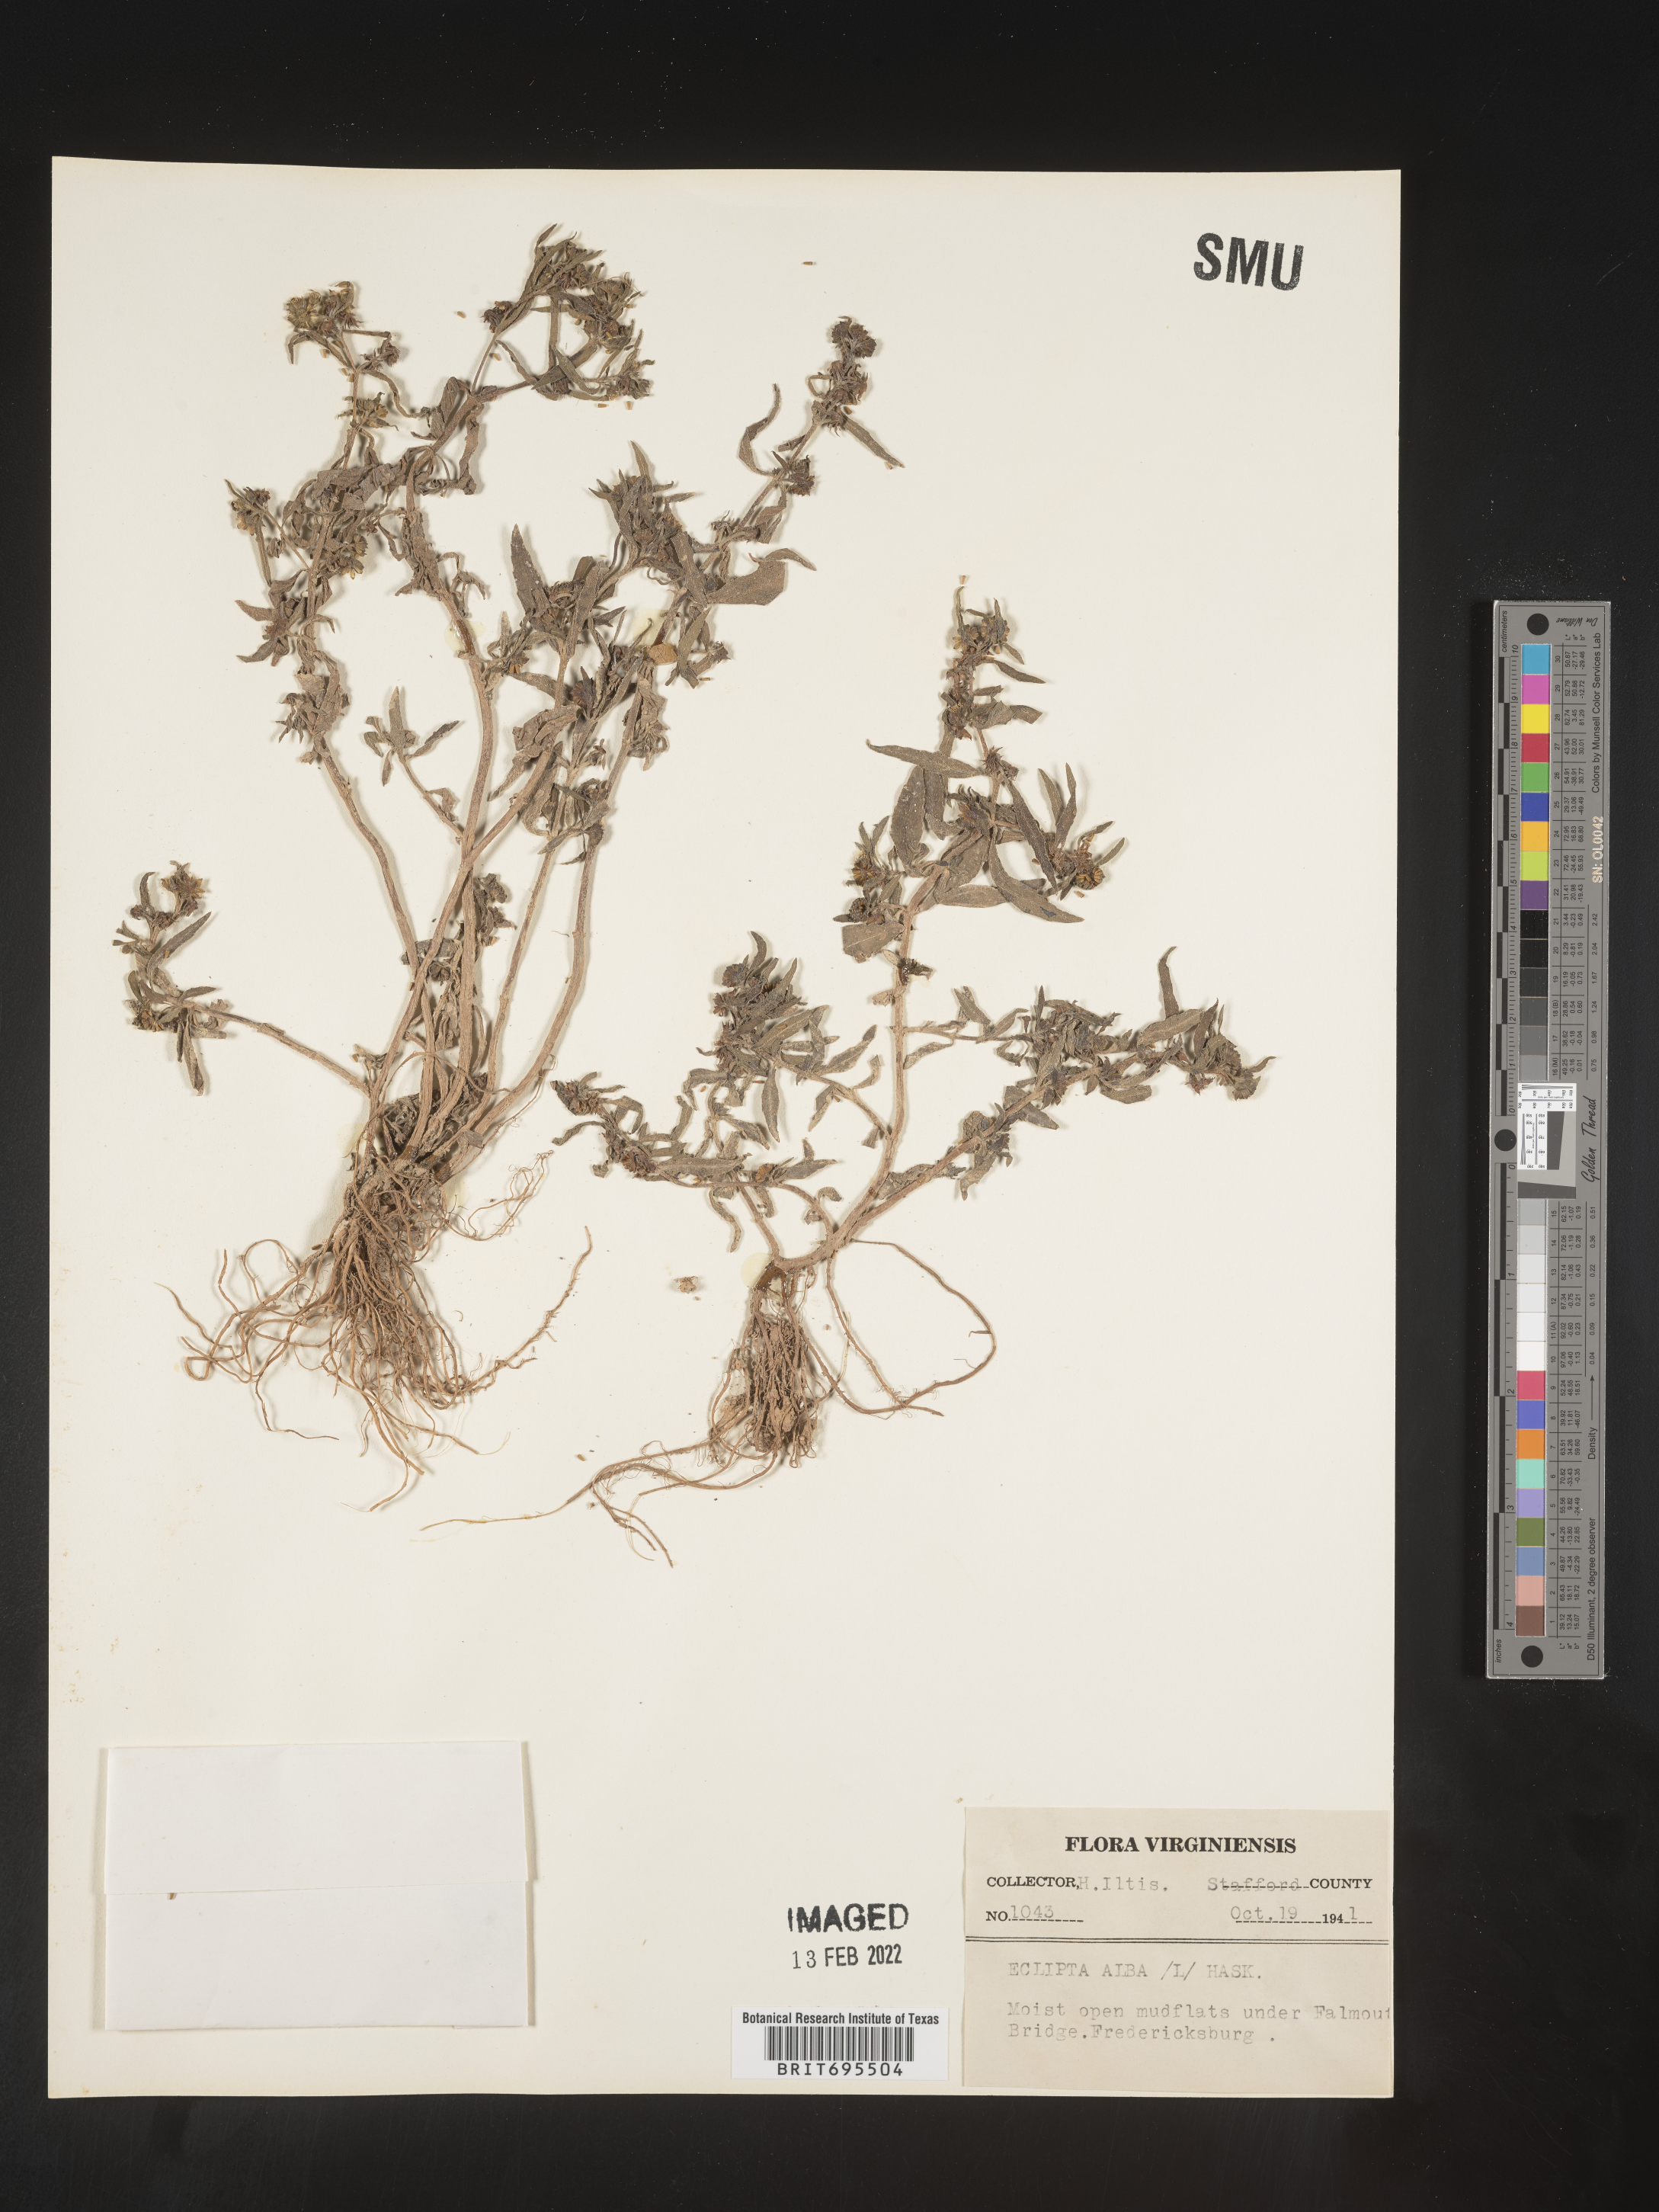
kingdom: Plantae
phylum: Tracheophyta
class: Magnoliopsida
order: Asterales
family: Asteraceae
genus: Eclipta
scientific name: Eclipta alba
